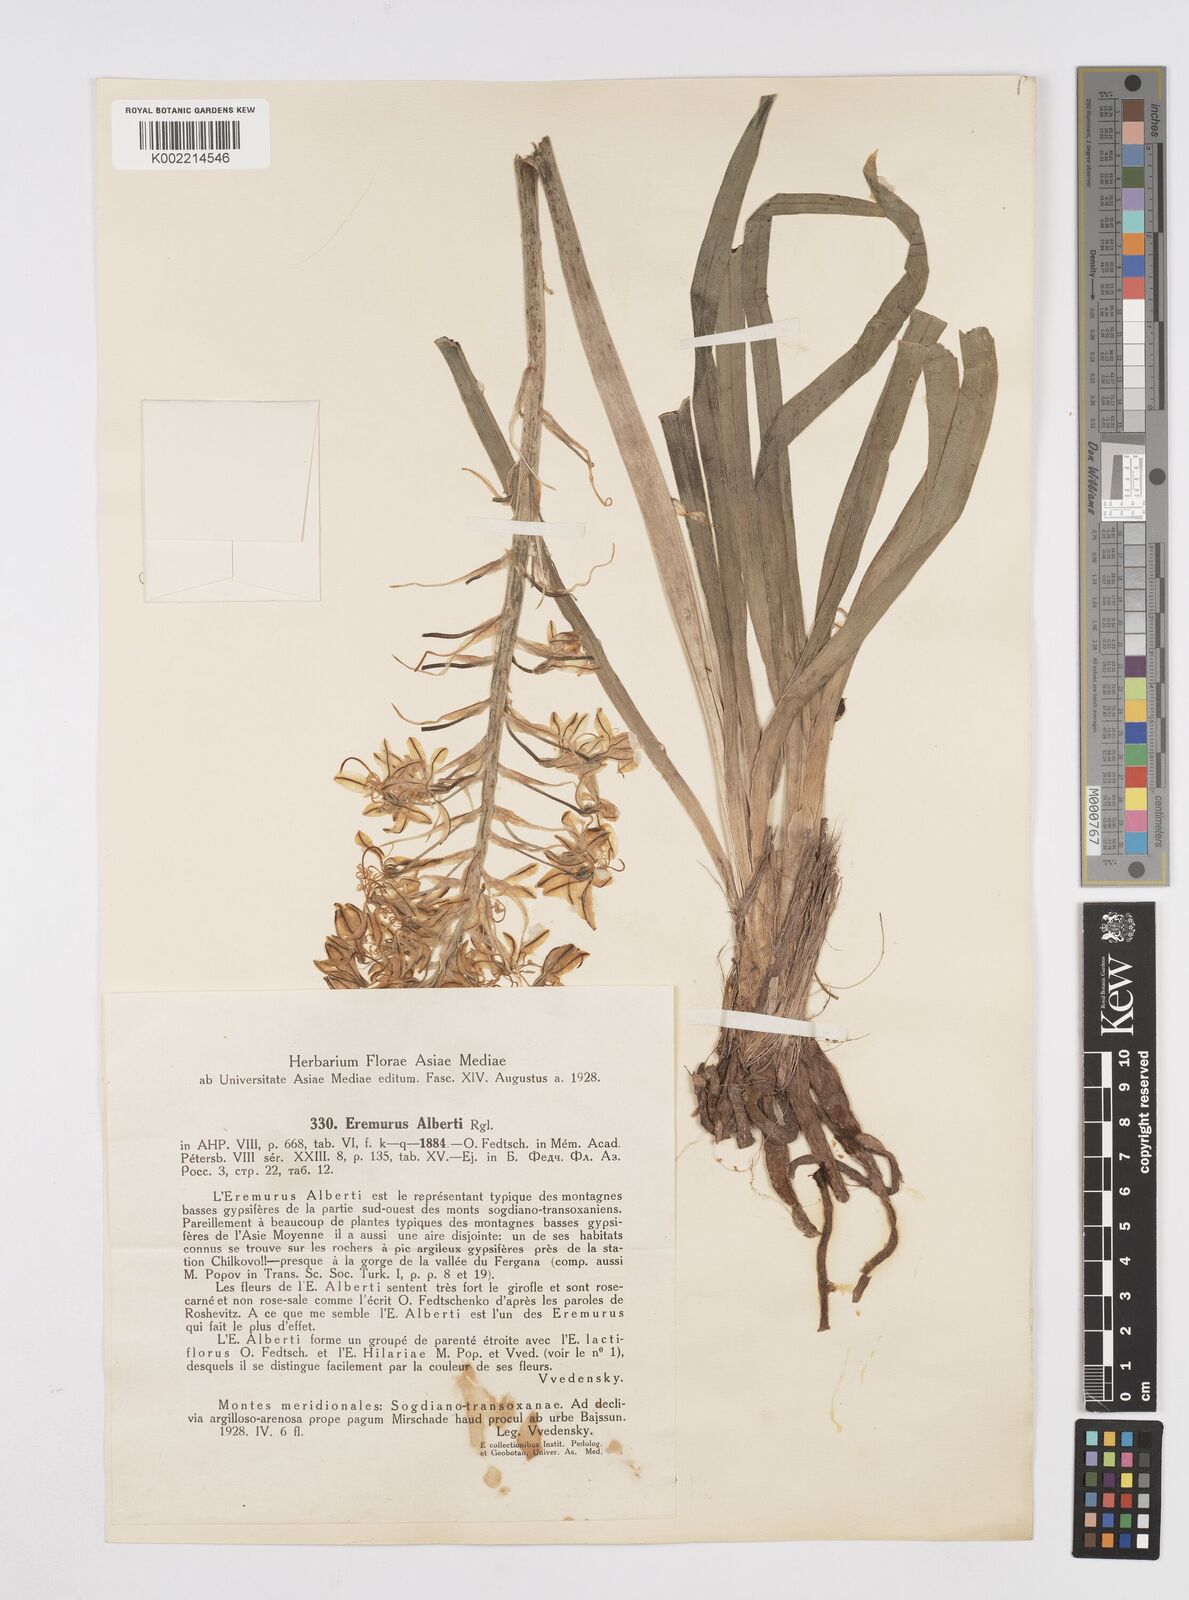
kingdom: Plantae
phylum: Tracheophyta
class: Liliopsida
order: Asparagales
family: Asphodelaceae
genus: Eremurus
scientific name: Eremurus alberti
